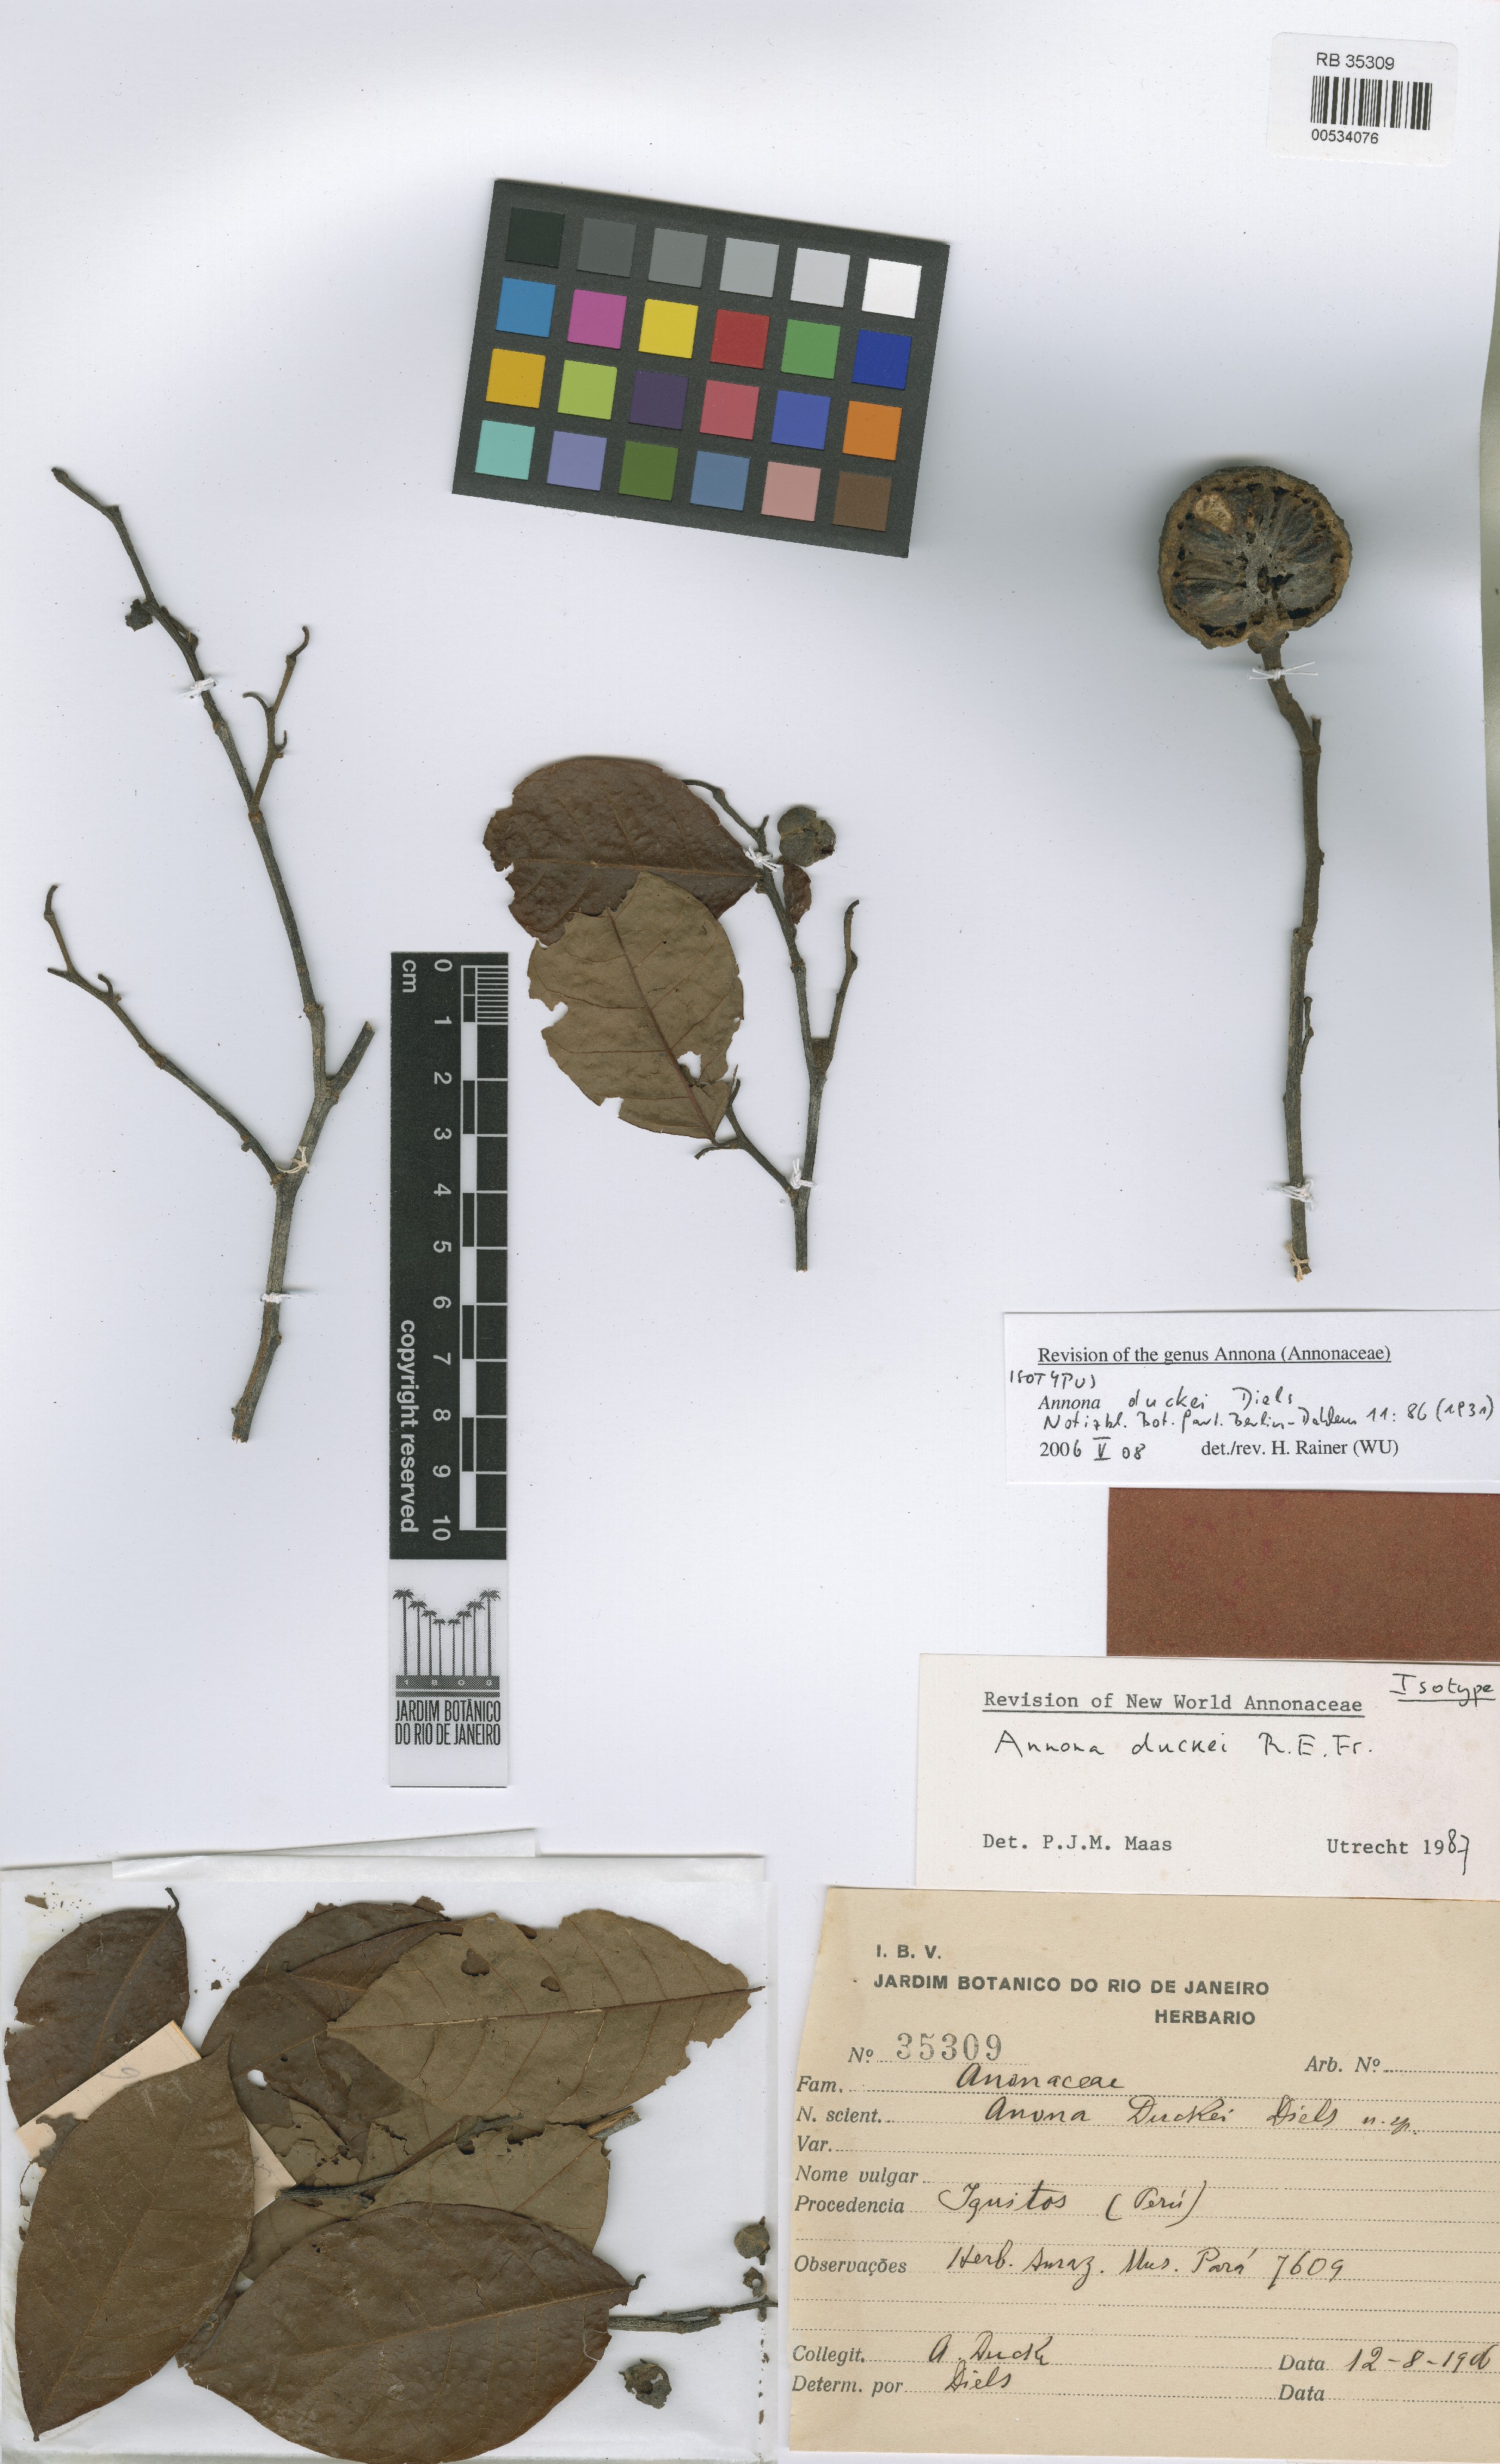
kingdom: Plantae
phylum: Tracheophyta
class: Magnoliopsida
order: Magnoliales
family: Annonaceae
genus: Annona
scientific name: Annona duckei
